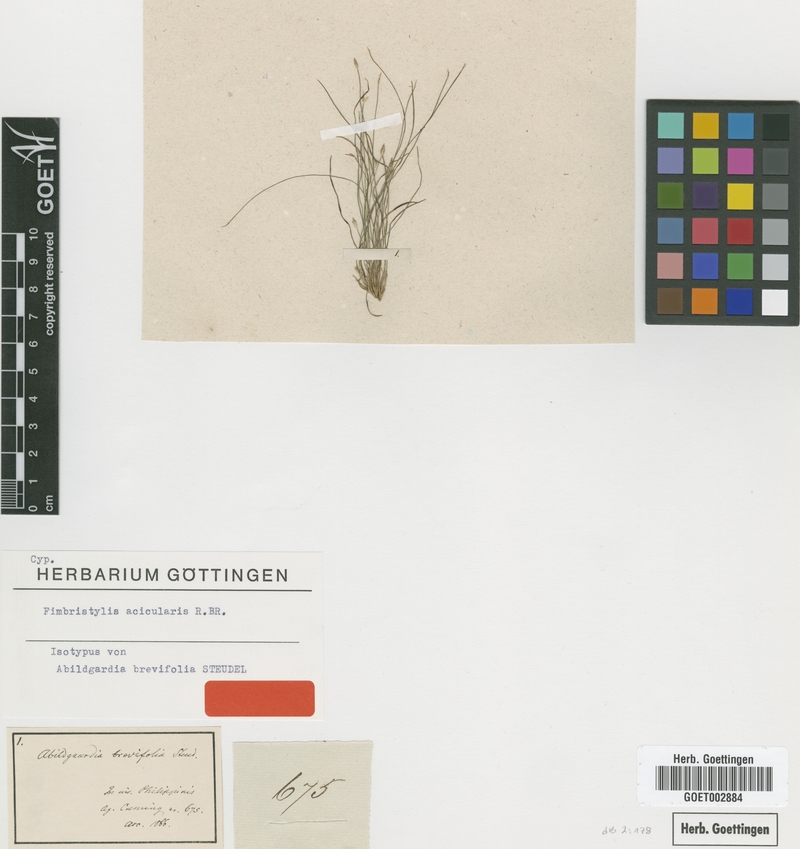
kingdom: Plantae
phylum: Tracheophyta
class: Liliopsida
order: Poales
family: Cyperaceae
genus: Fimbristylis
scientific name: Fimbristylis acicularis
